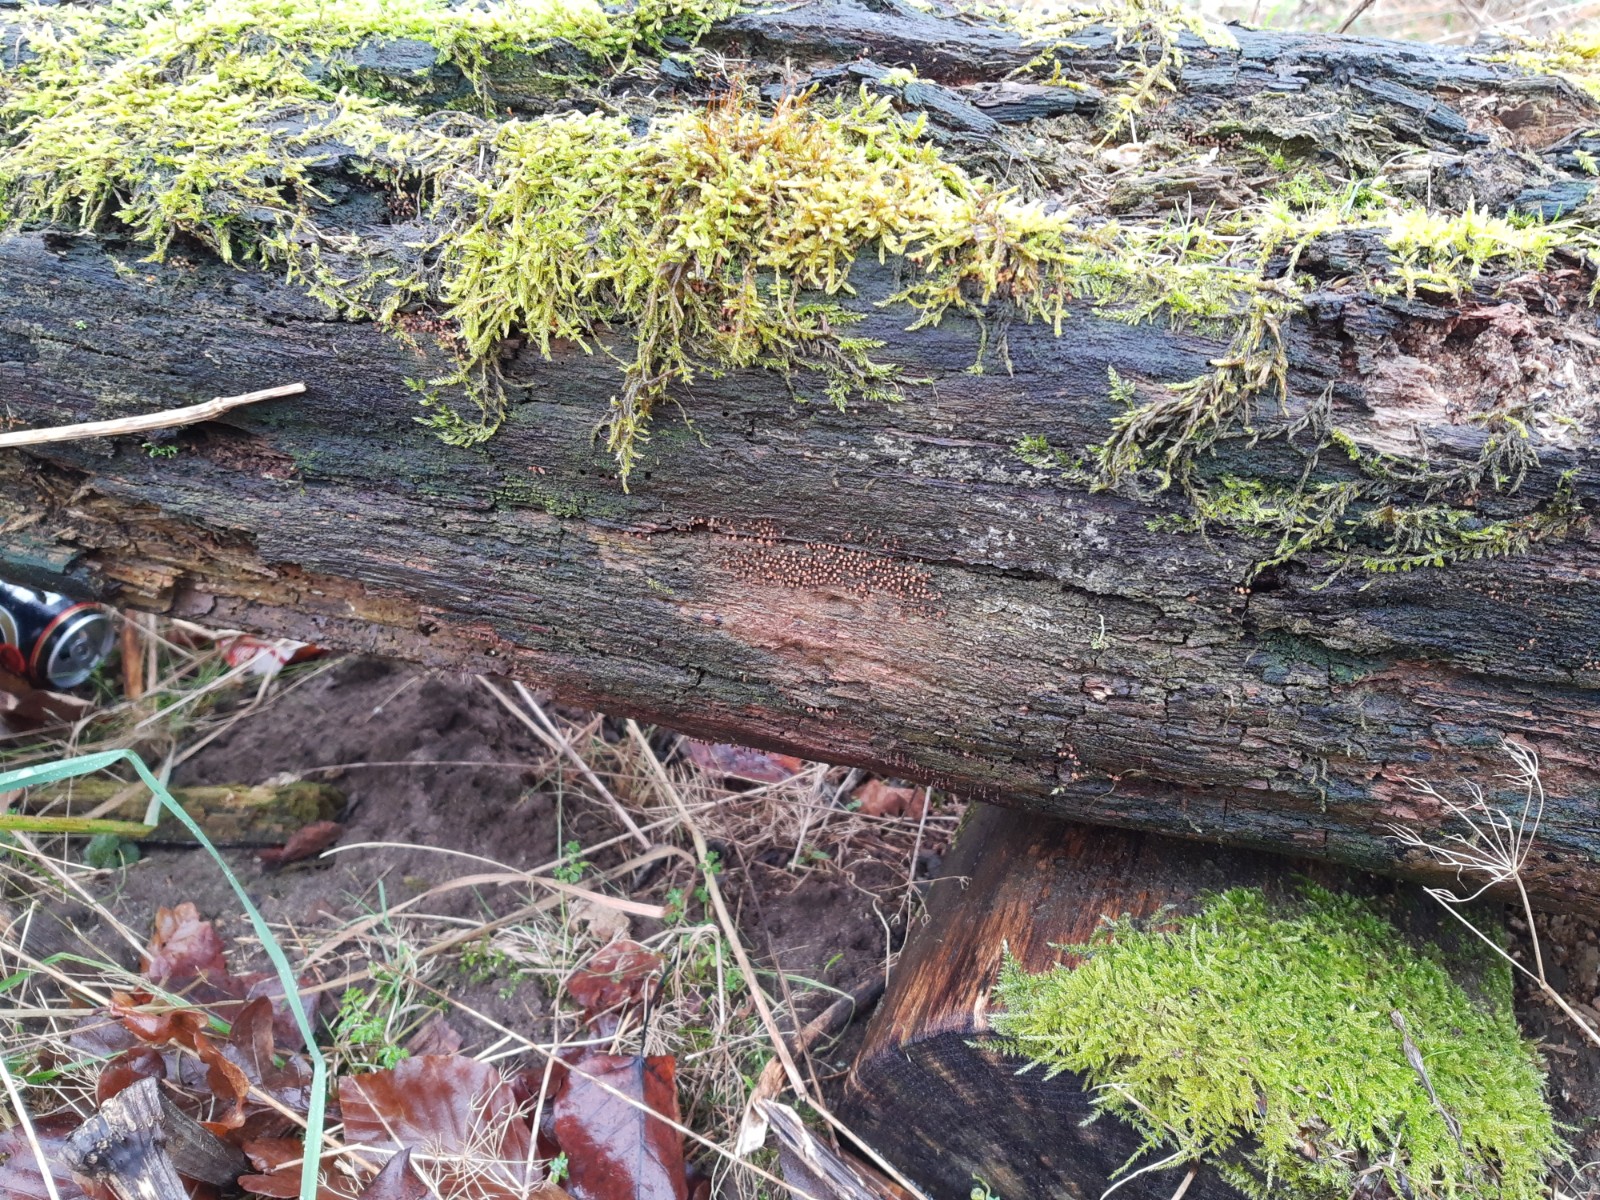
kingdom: Protozoa
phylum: Mycetozoa
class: Myxomycetes
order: Trichiales
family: Trichiaceae
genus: Trichia
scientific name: Trichia botrytis
